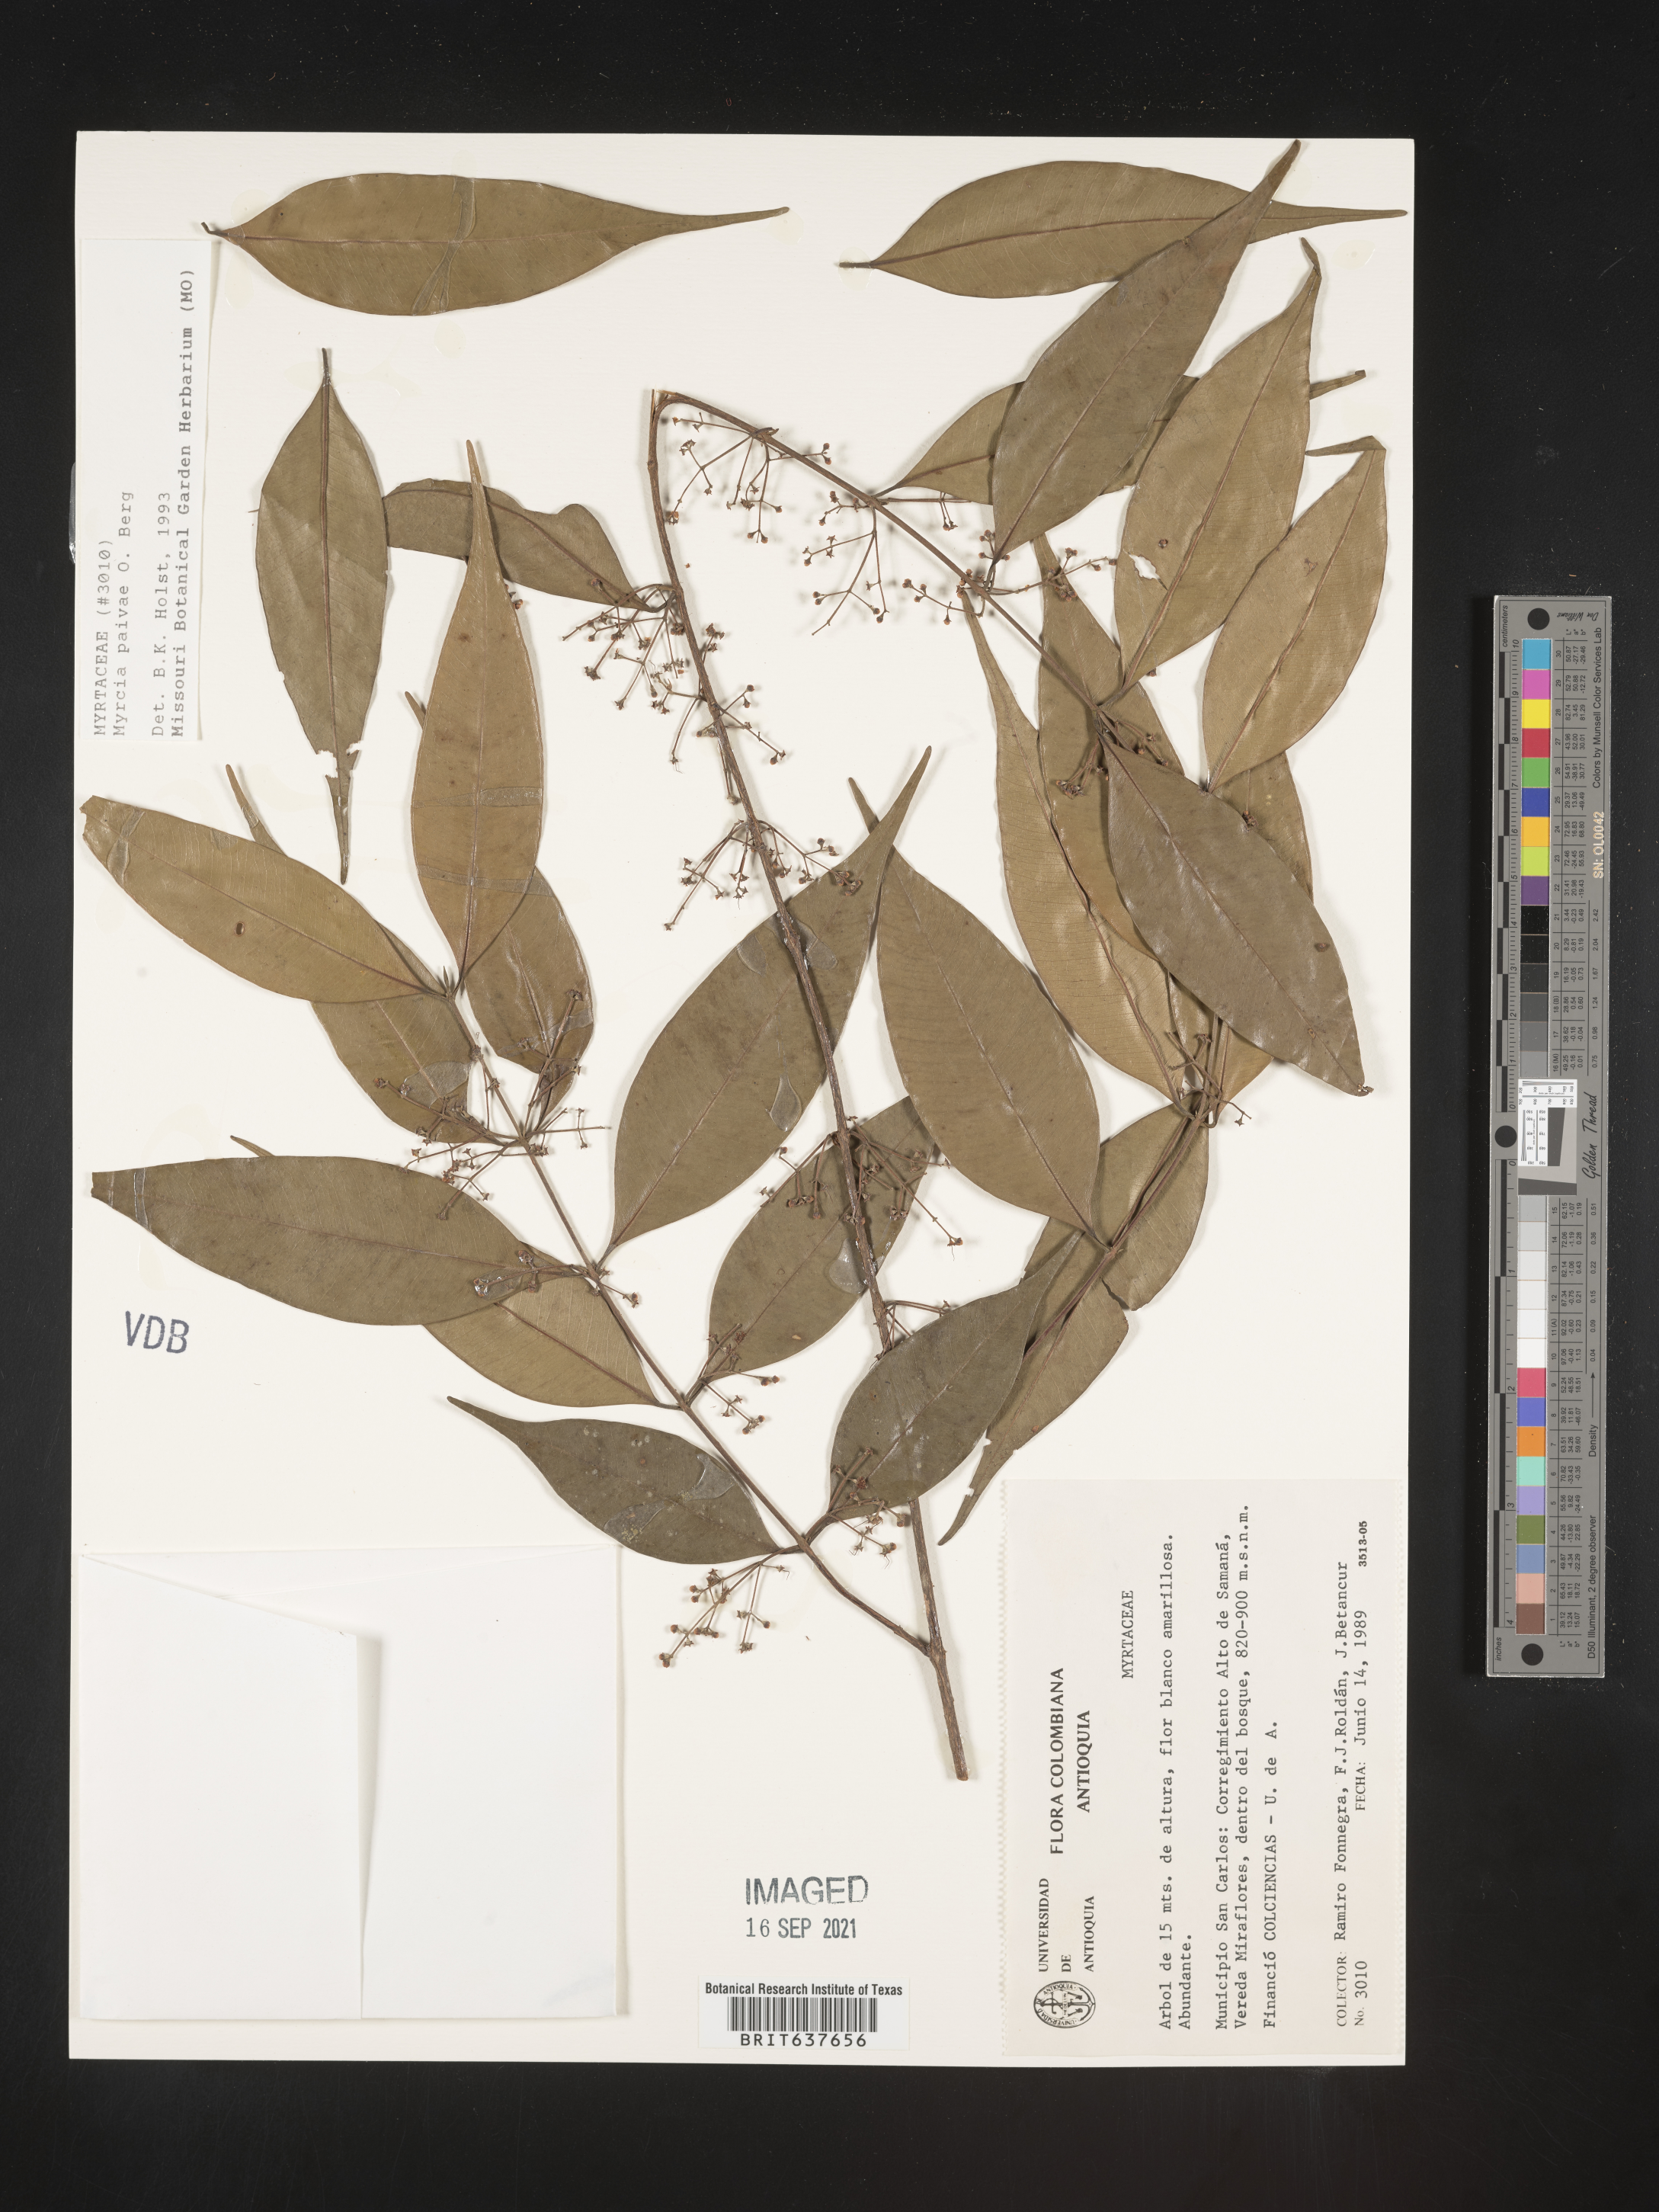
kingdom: Plantae
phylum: Tracheophyta
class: Magnoliopsida
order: Myrtales
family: Myrtaceae
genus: Myrcia
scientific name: Myrcia
